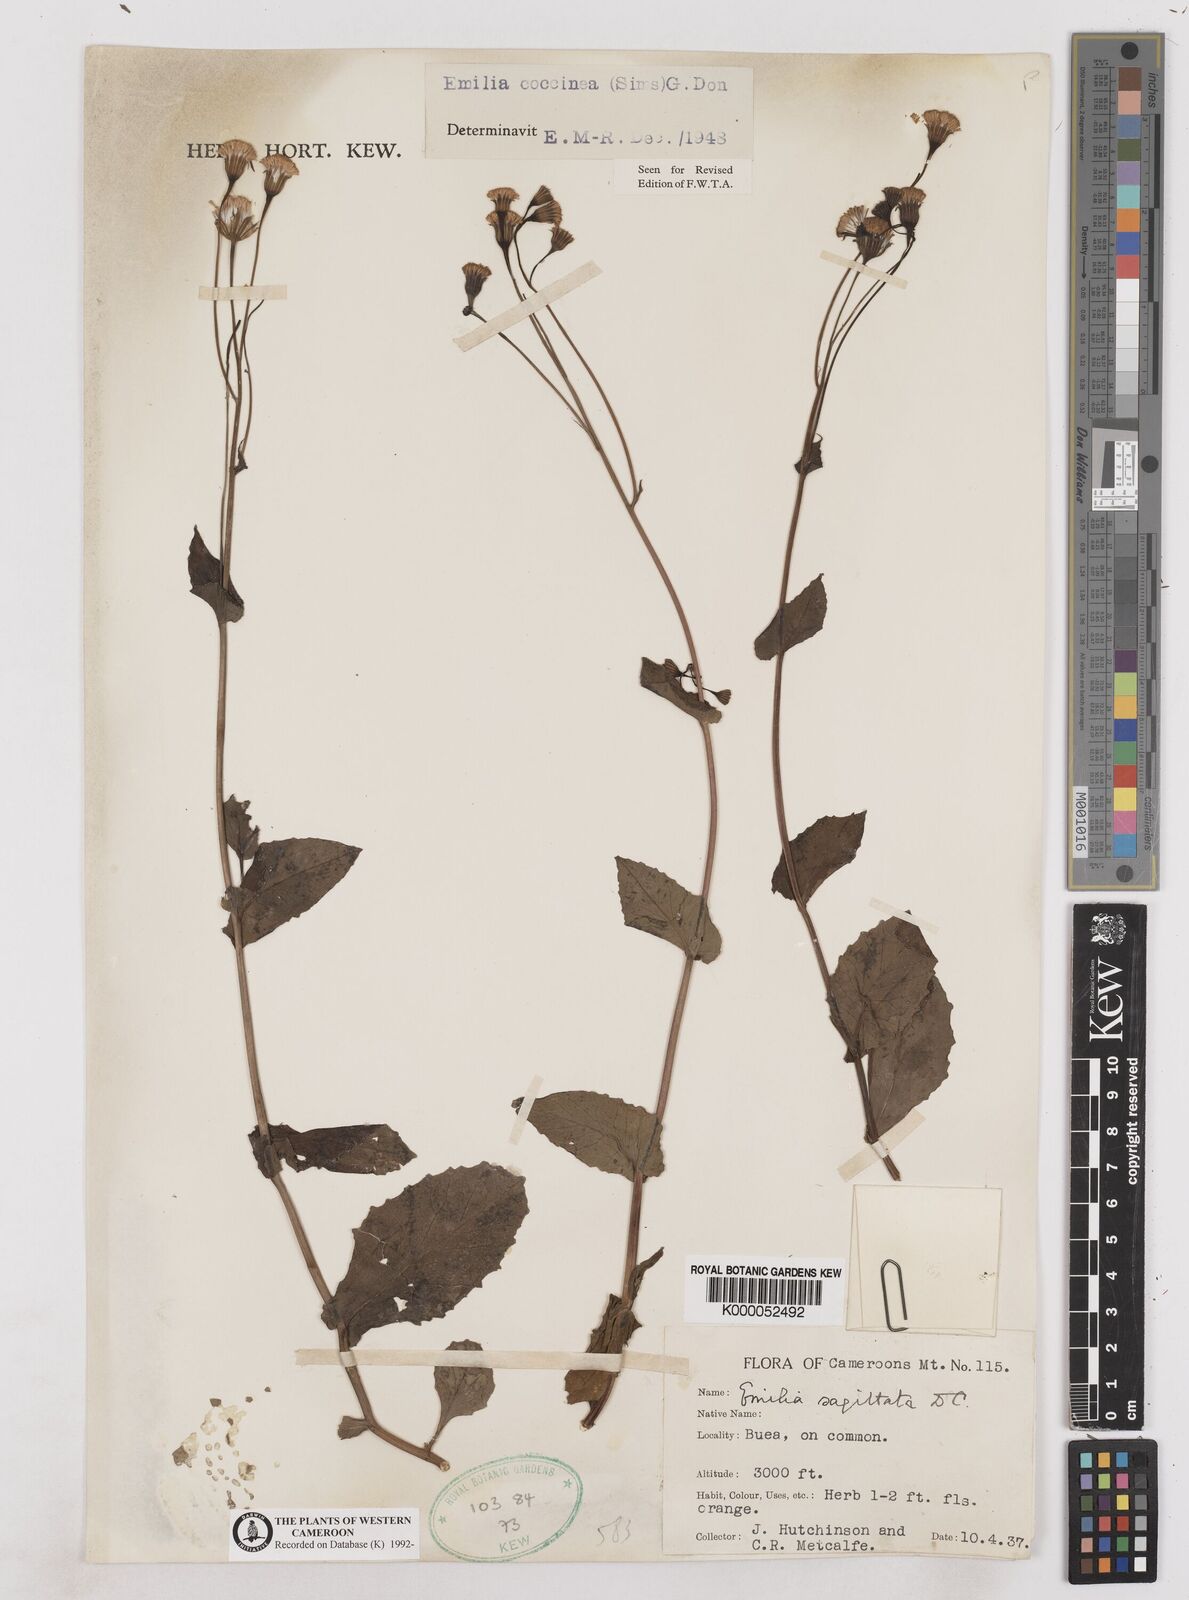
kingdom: Plantae
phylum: Tracheophyta
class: Magnoliopsida
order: Asterales
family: Asteraceae
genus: Emilia
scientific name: Emilia lisowskiana
